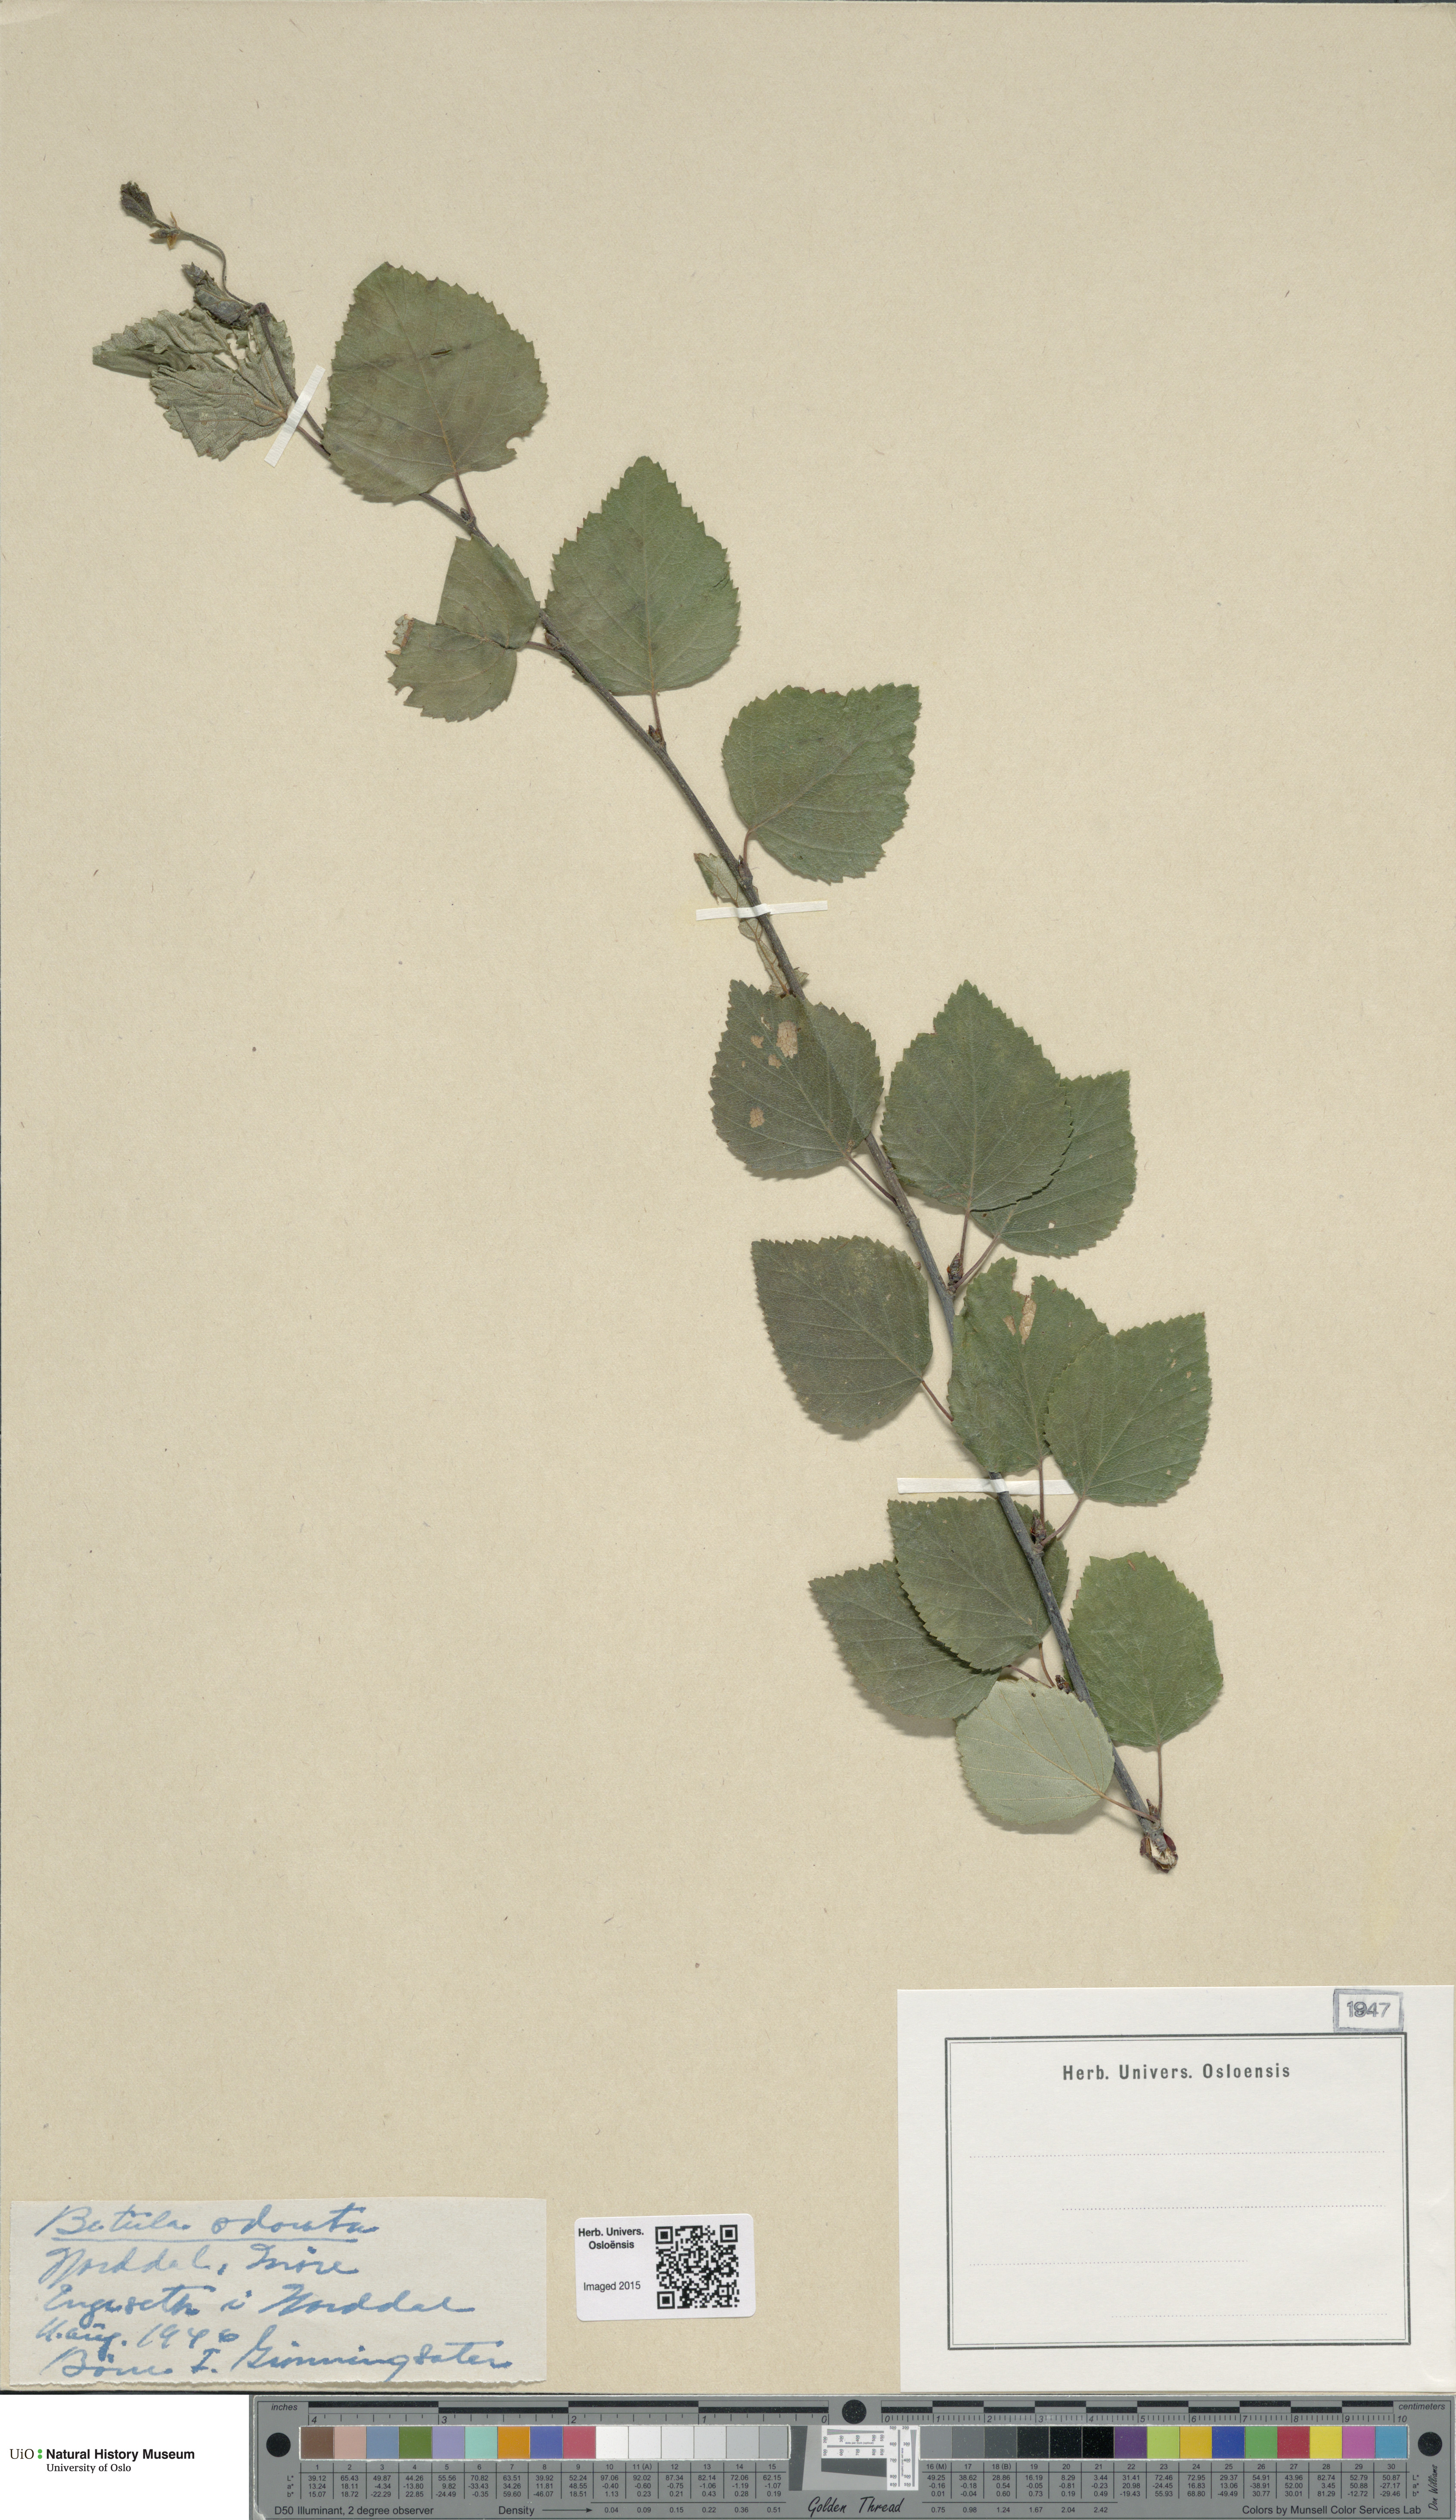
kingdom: Plantae
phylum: Tracheophyta
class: Magnoliopsida
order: Fagales
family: Betulaceae
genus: Betula
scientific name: Betula pubescens
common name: Downy birch
